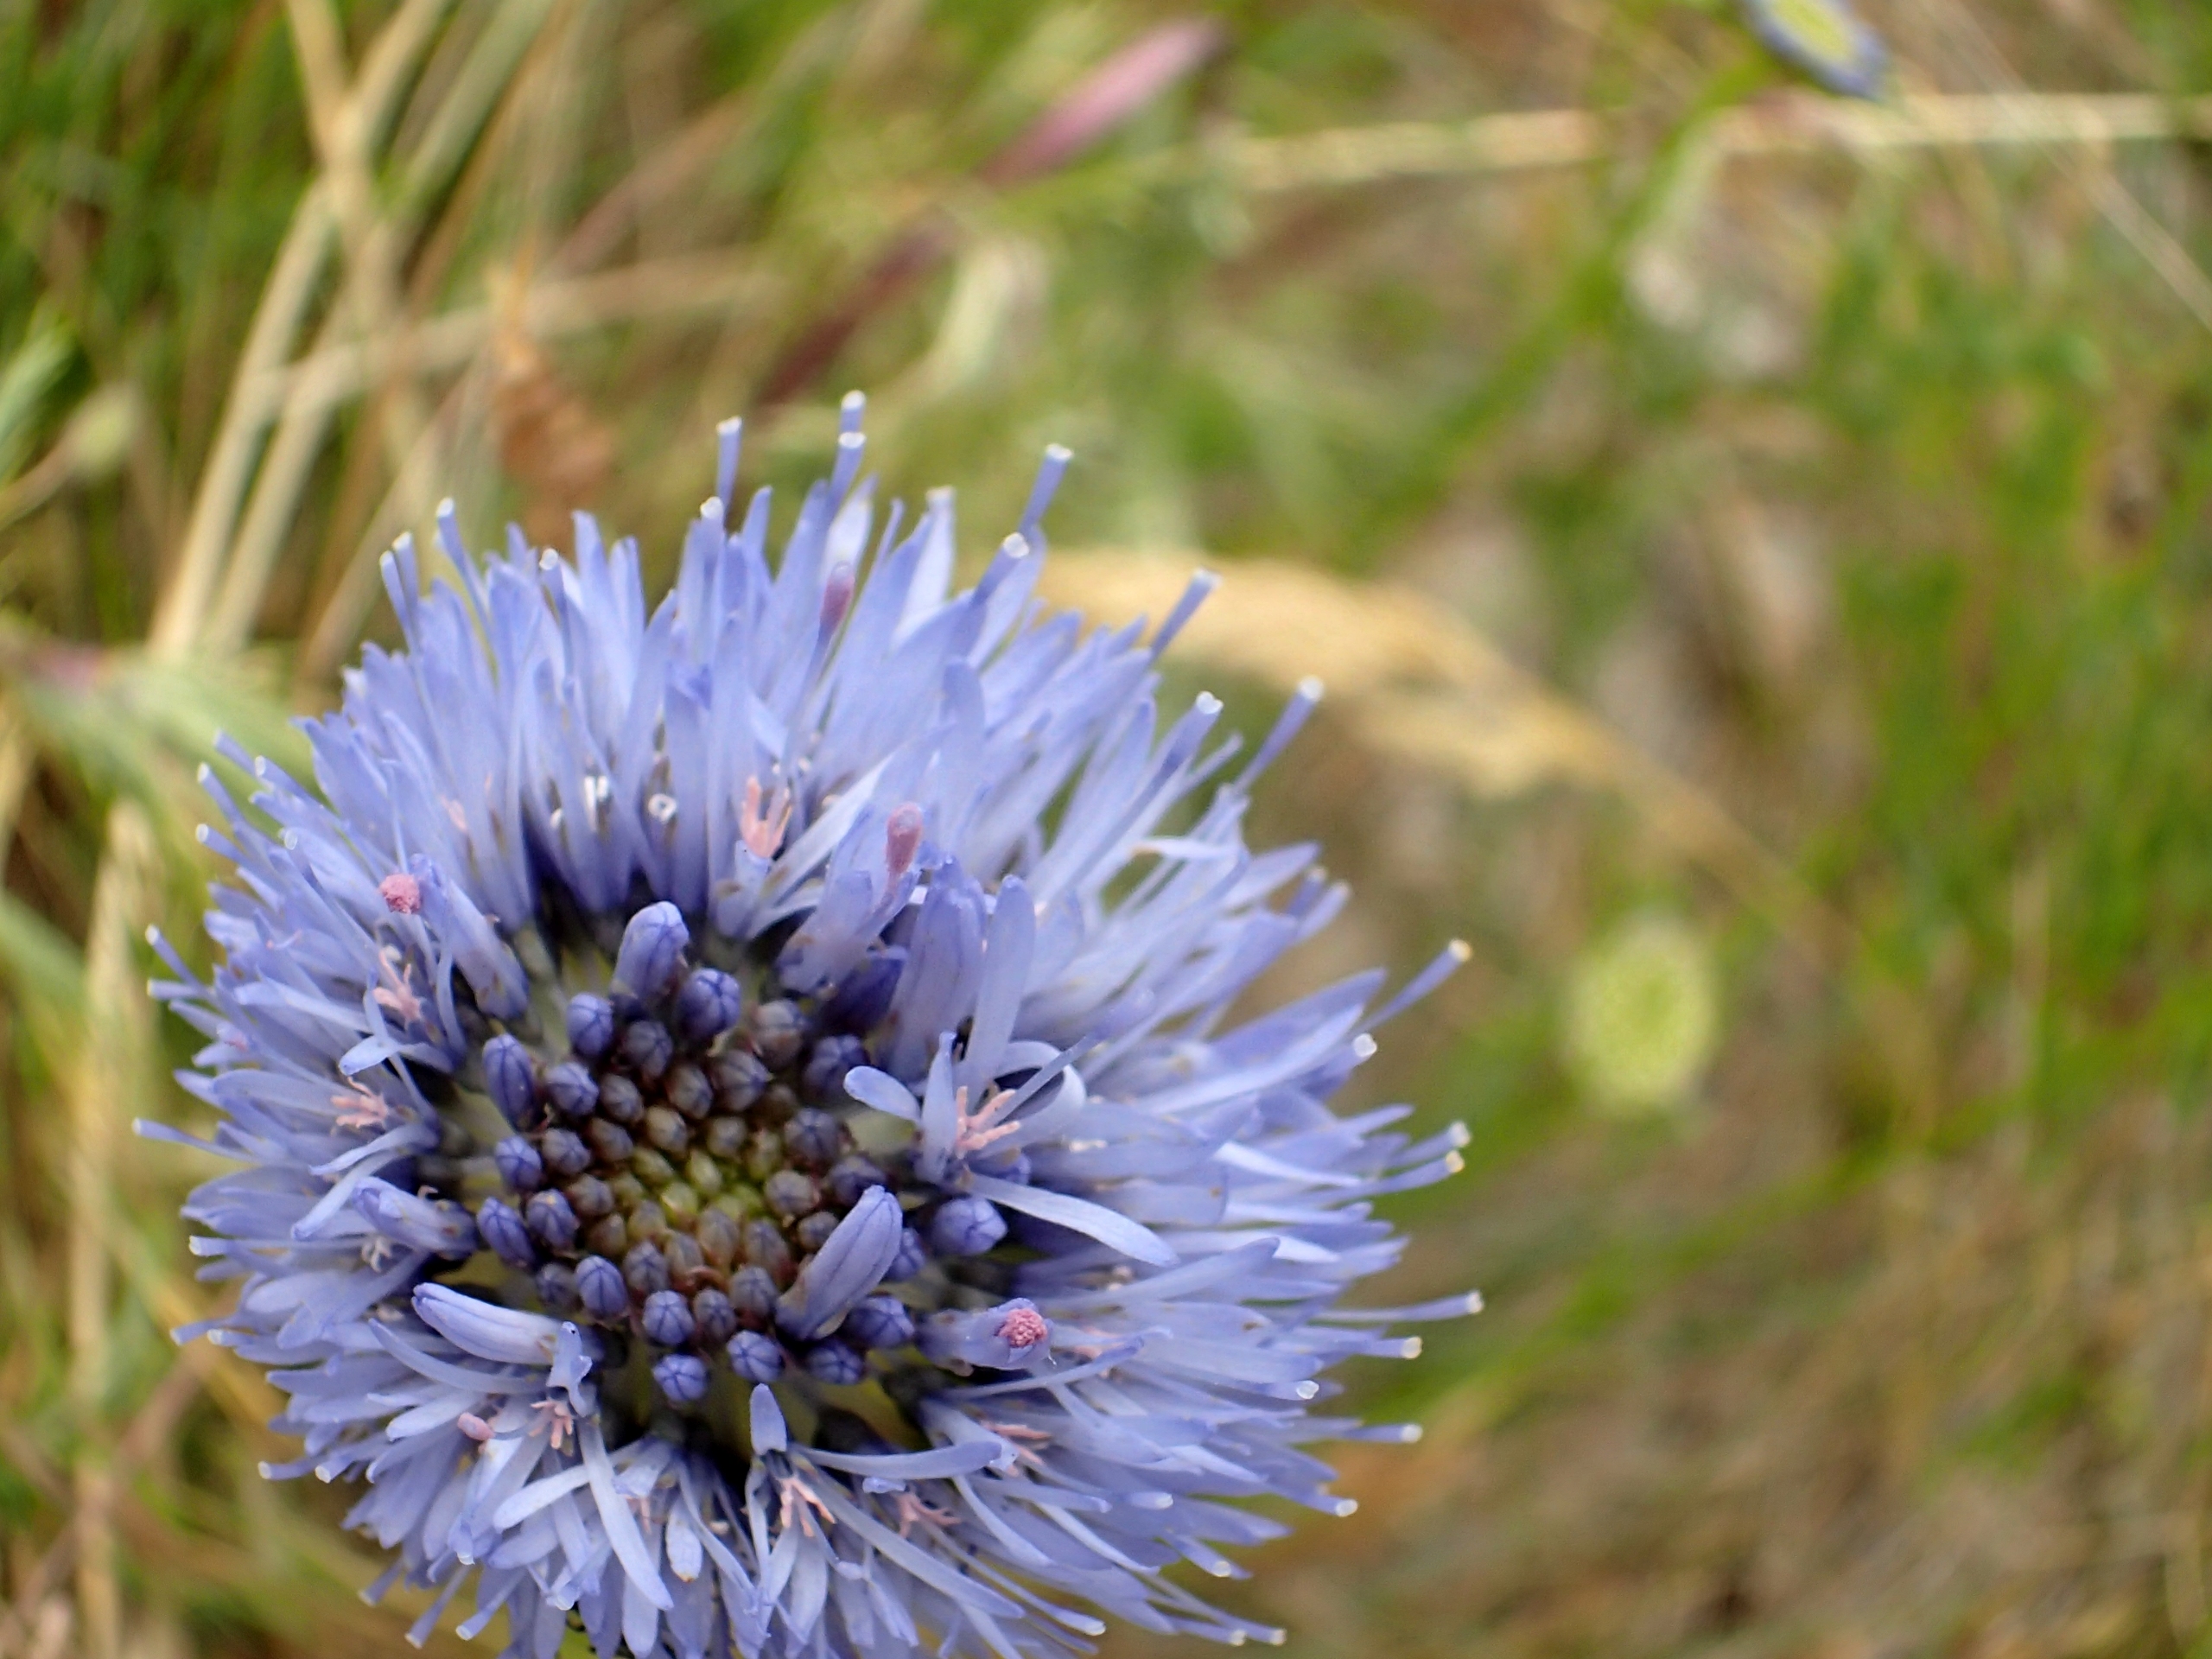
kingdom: Plantae
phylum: Tracheophyta
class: Magnoliopsida
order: Asterales
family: Campanulaceae
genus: Jasione
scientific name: Jasione montana
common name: Blåmunke
